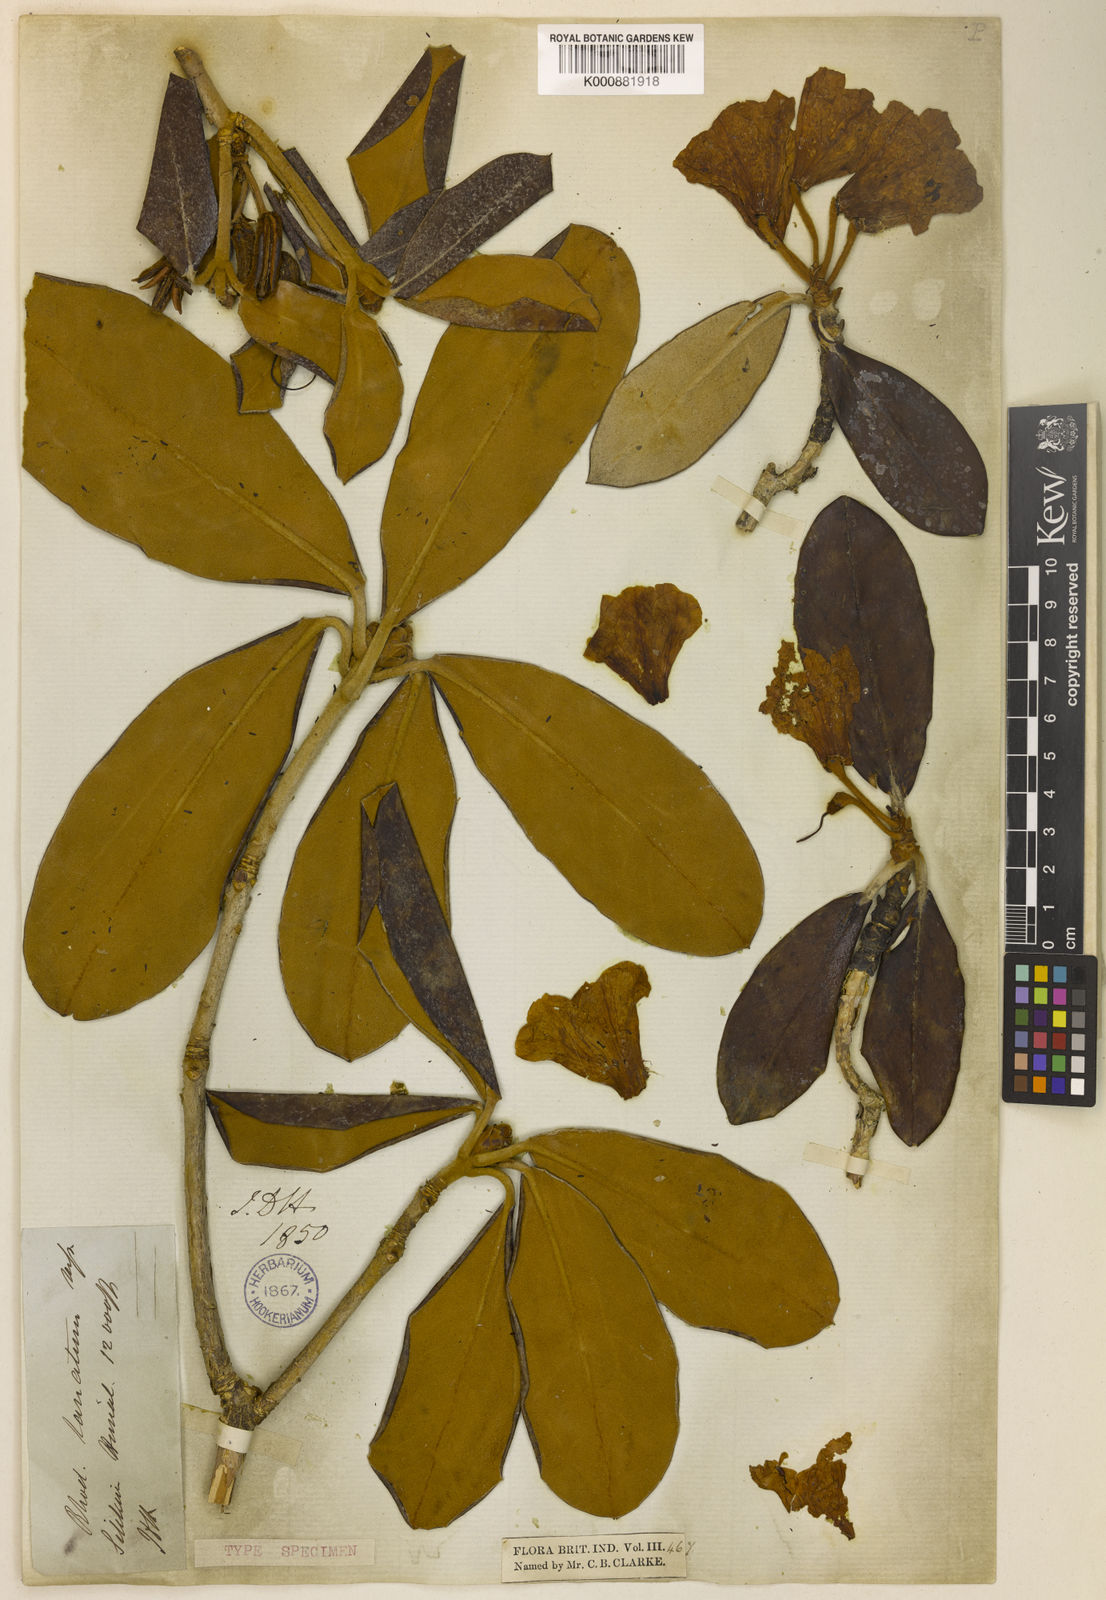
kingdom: Plantae
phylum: Tracheophyta
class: Magnoliopsida
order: Ericales
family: Ericaceae
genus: Rhododendron
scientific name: Rhododendron lanatum
